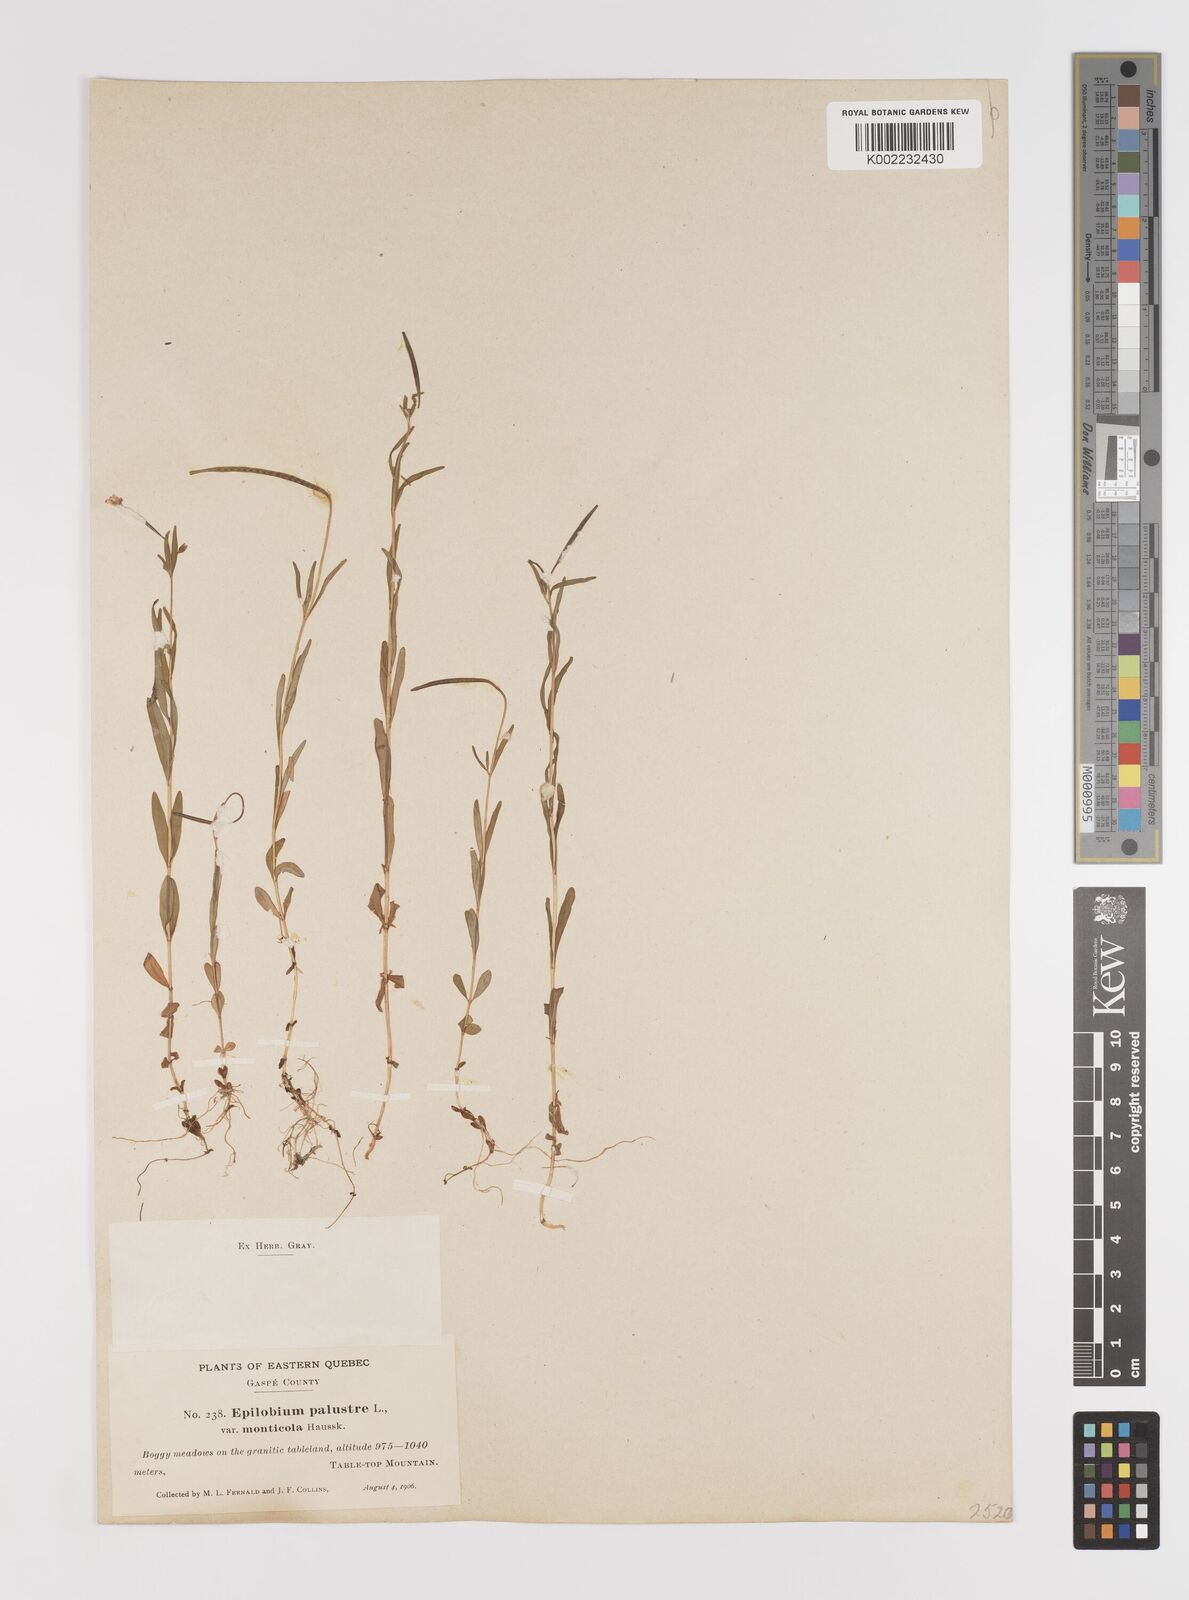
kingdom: Plantae
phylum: Tracheophyta
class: Magnoliopsida
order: Myrtales
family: Onagraceae
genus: Epilobium
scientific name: Epilobium palustre
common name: Marsh willowherb
